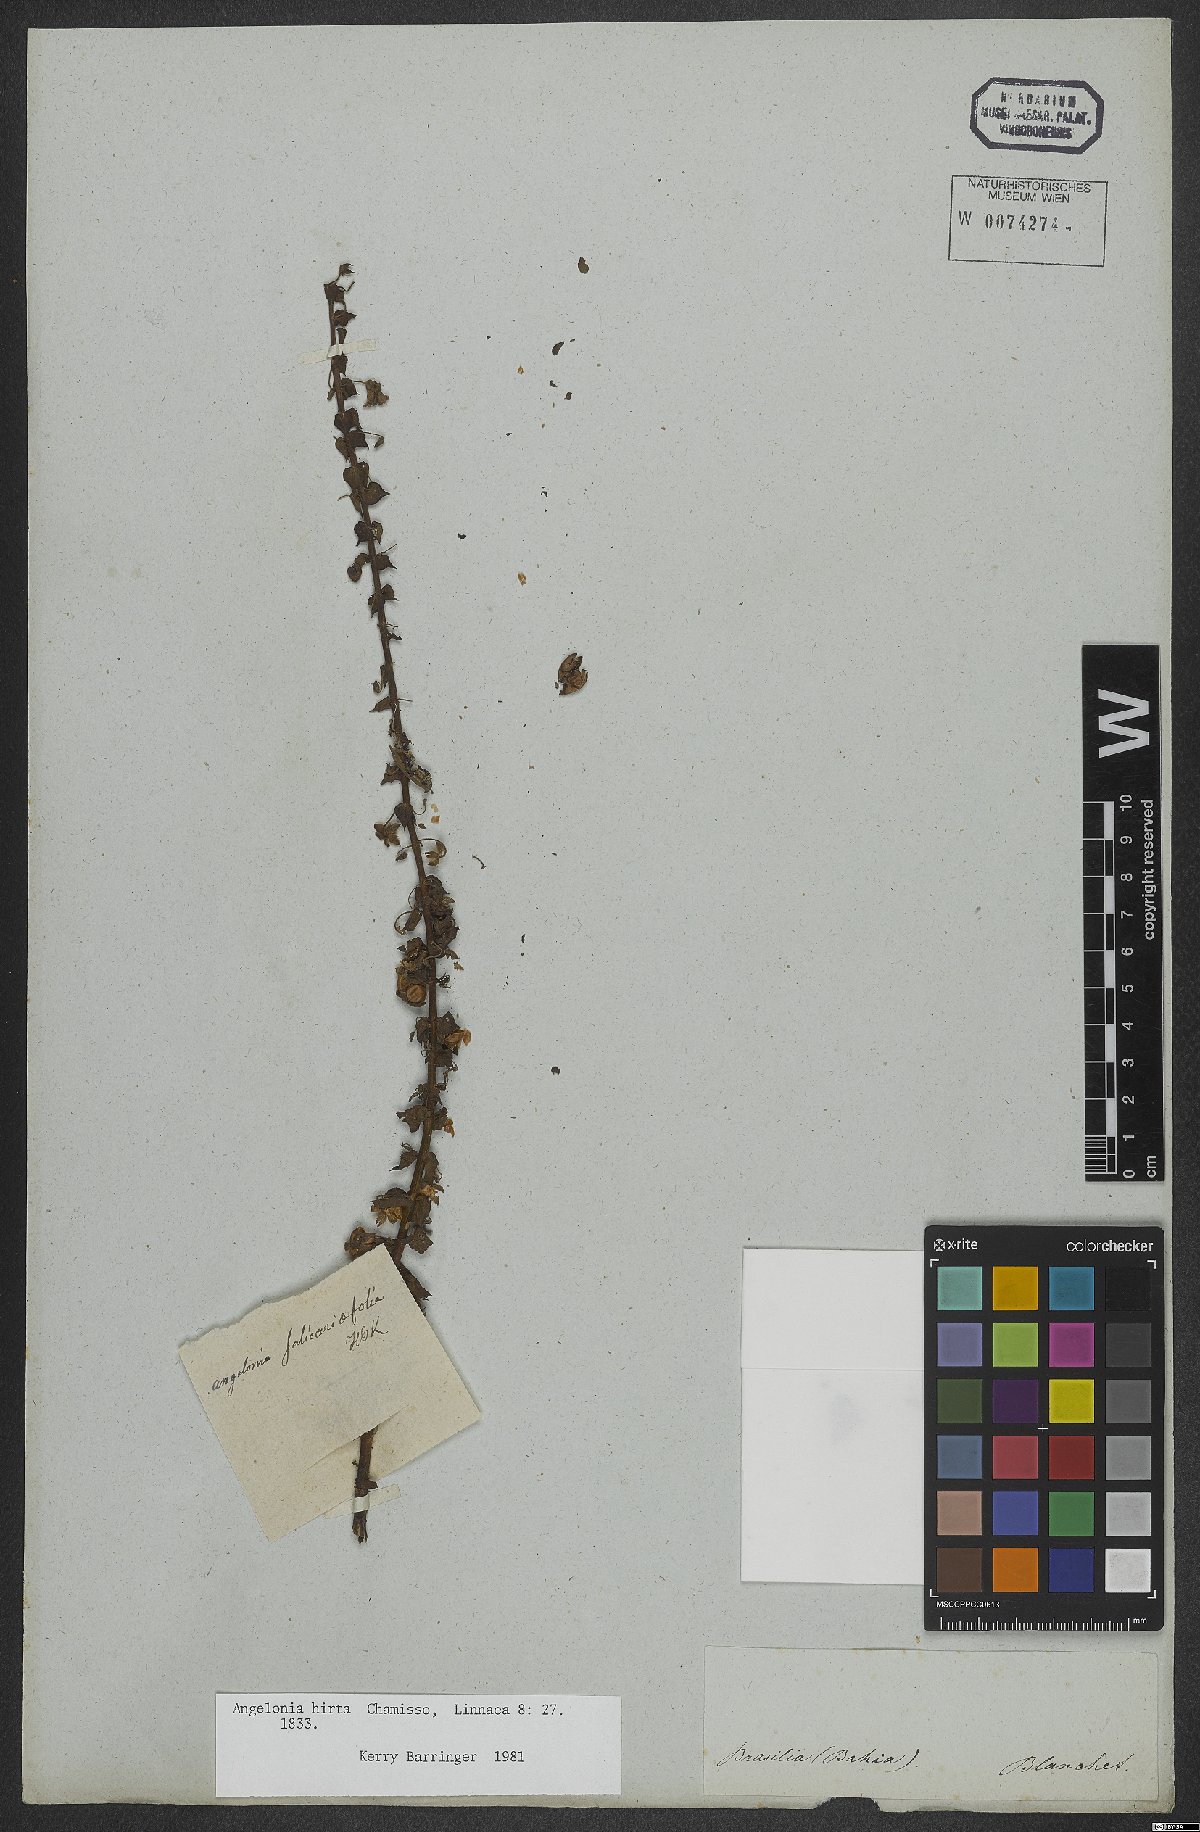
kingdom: Plantae
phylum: Tracheophyta
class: Magnoliopsida
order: Lamiales
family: Plantaginaceae
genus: Angelonia
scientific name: Angelonia salicariifolia
